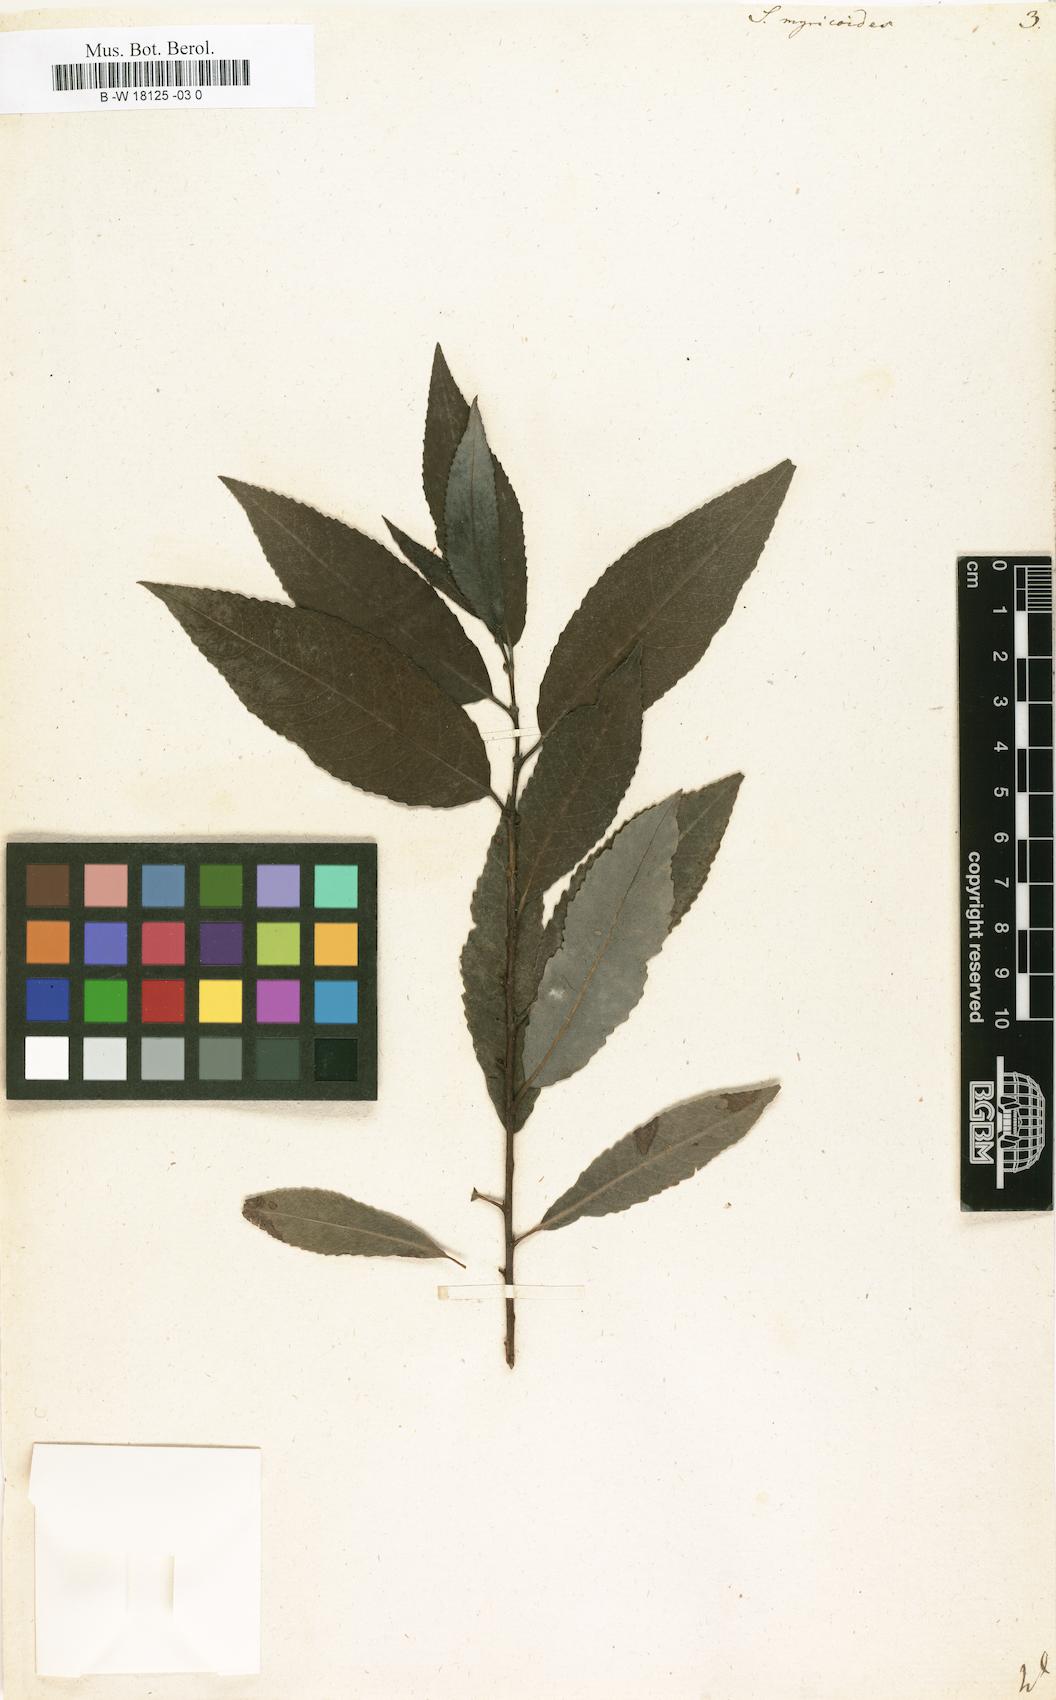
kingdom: Plantae
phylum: Tracheophyta
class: Magnoliopsida
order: Malpighiales
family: Salicaceae
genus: Salix
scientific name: Salix myricoides
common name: Bayberry willow
